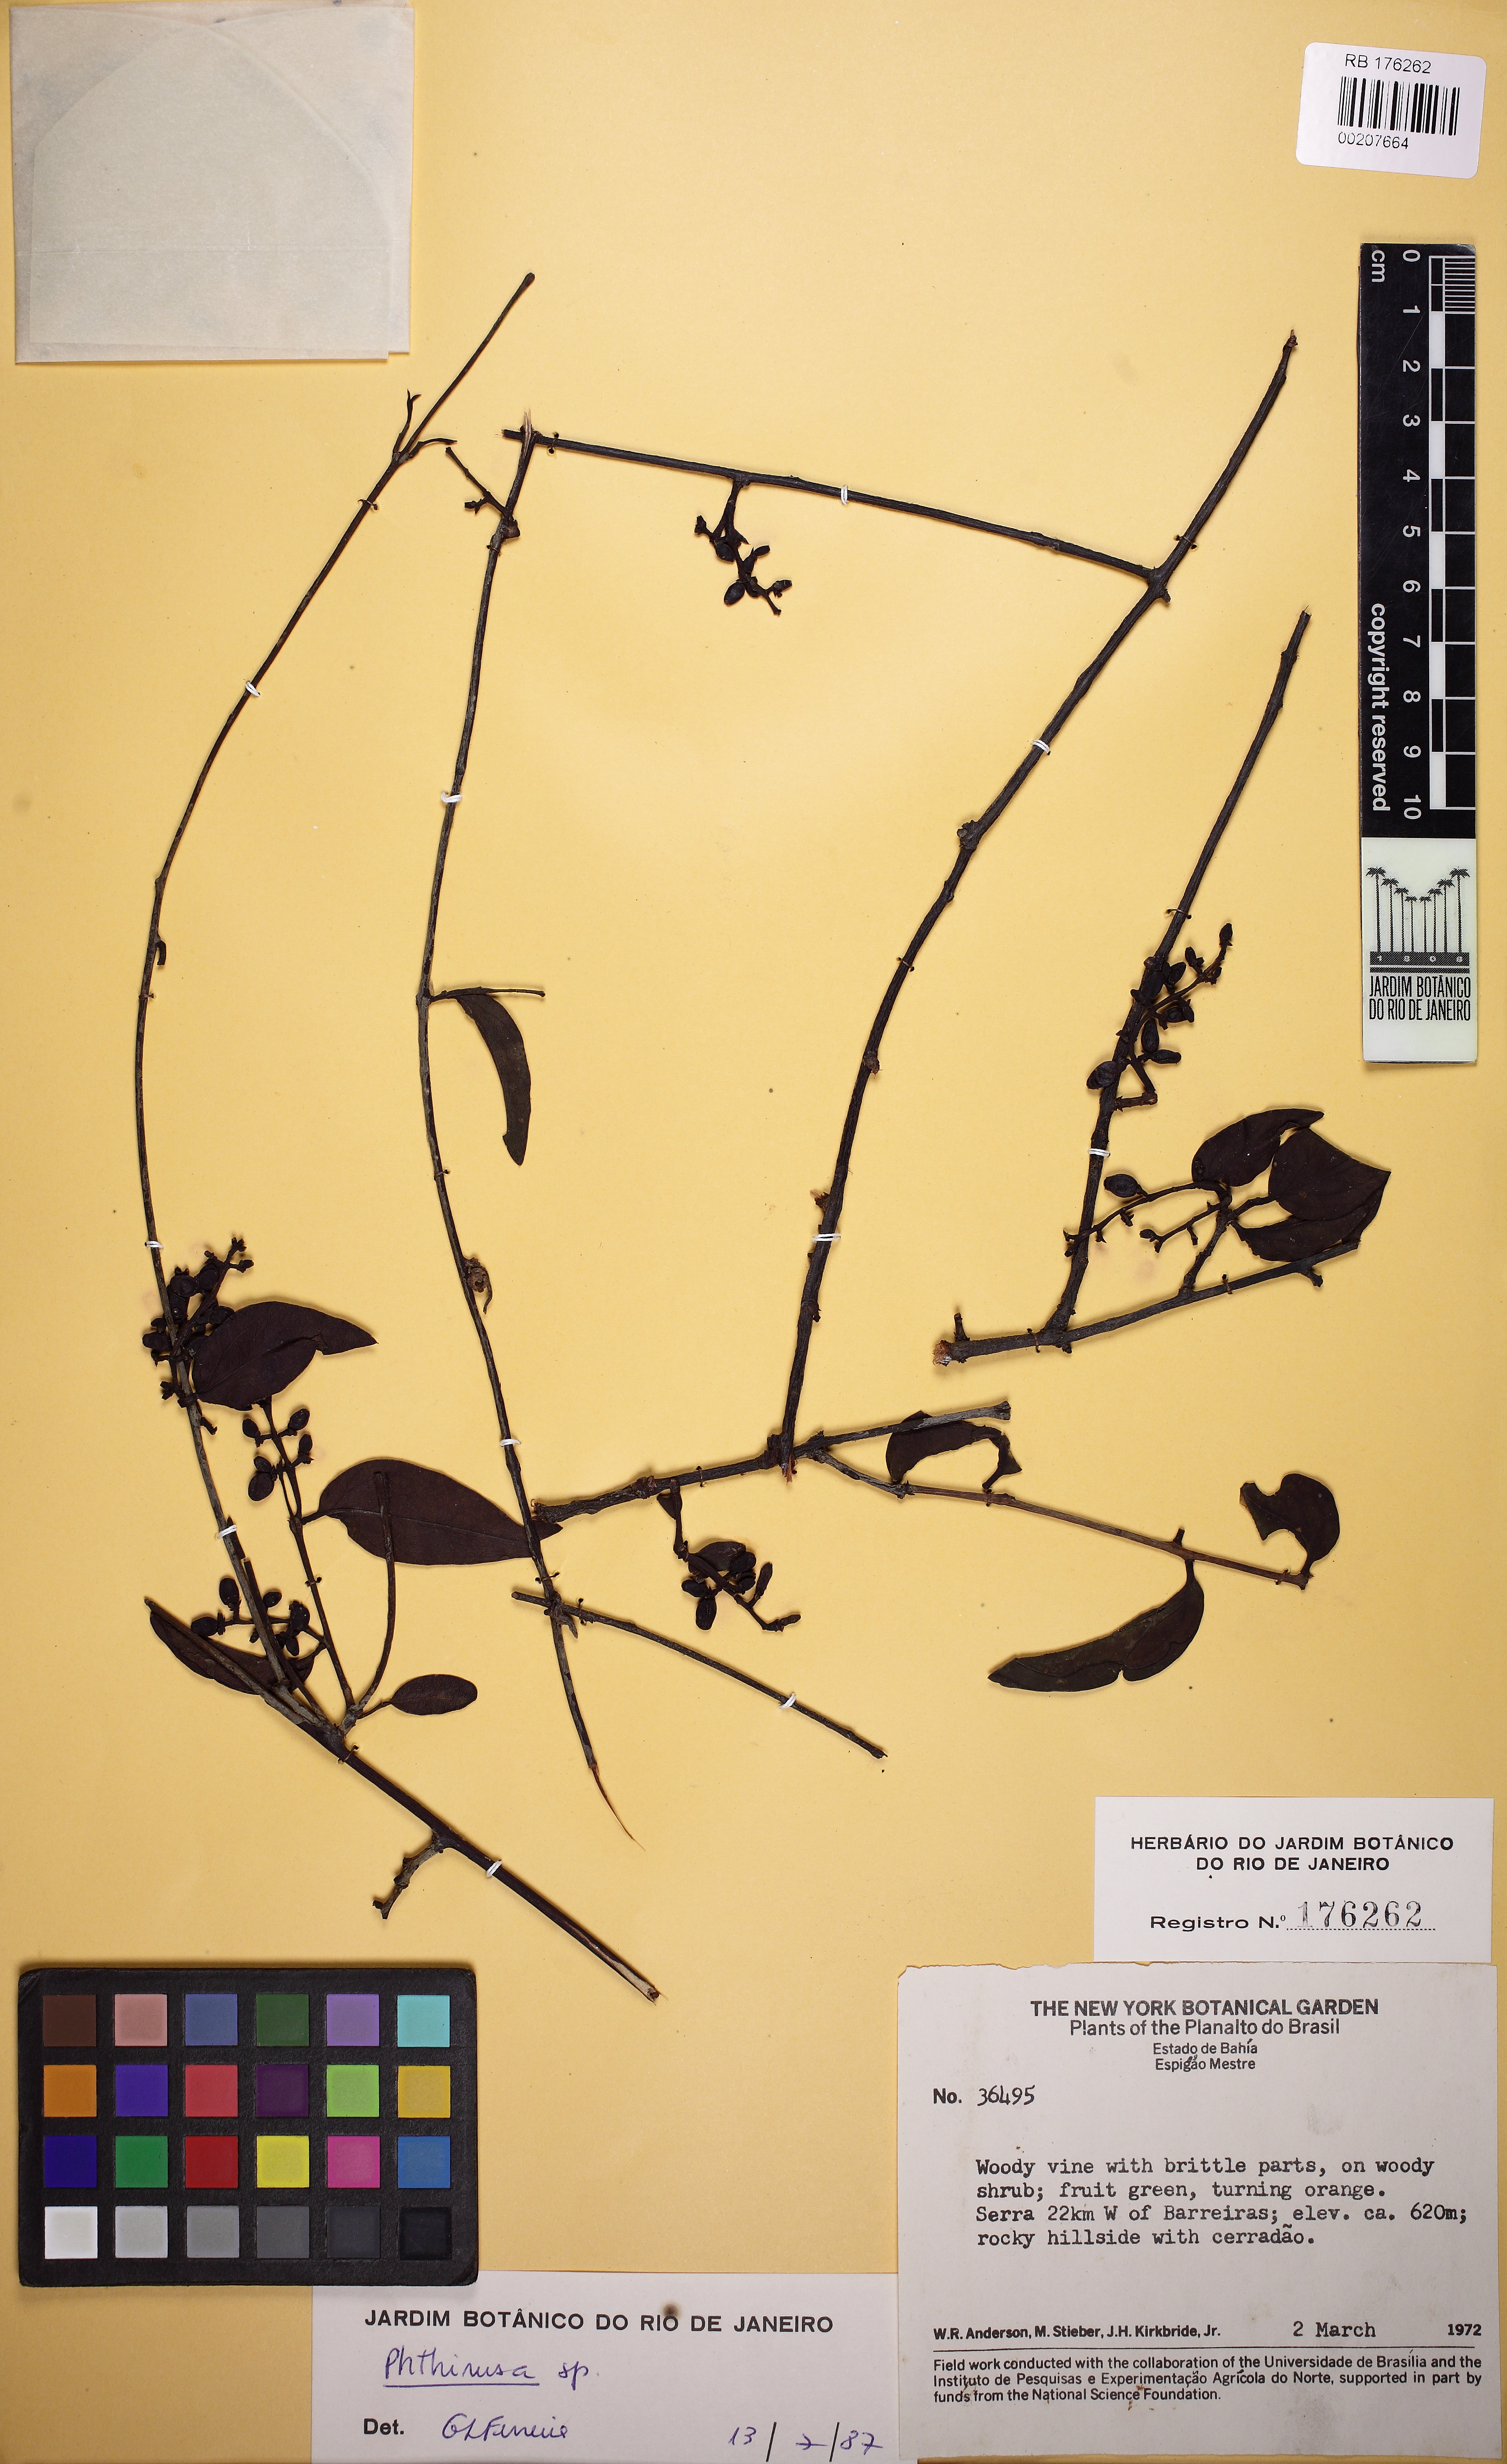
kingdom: Plantae
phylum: Tracheophyta
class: Magnoliopsida
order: Santalales
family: Loranthaceae
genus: Phthirusa
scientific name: Phthirusa
